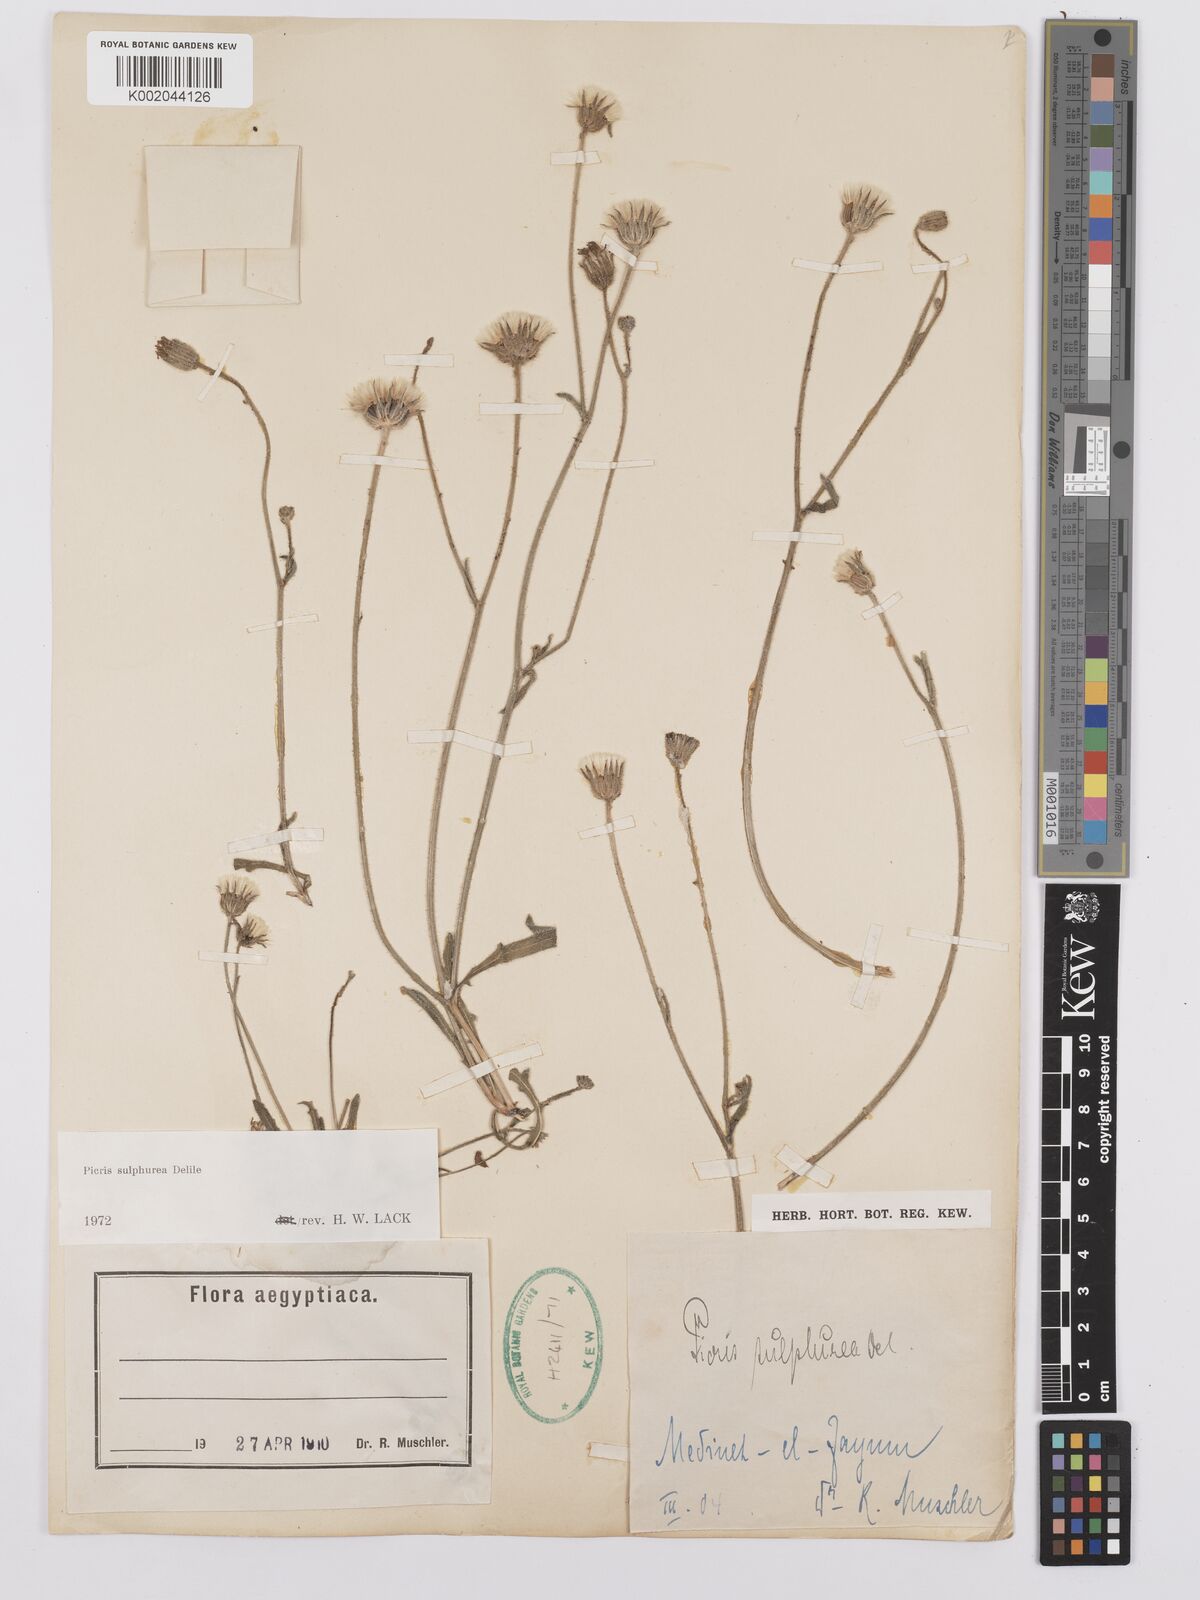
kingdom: Plantae
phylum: Tracheophyta
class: Magnoliopsida
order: Asterales
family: Asteraceae
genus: Picris
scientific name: Picris sulphurea
